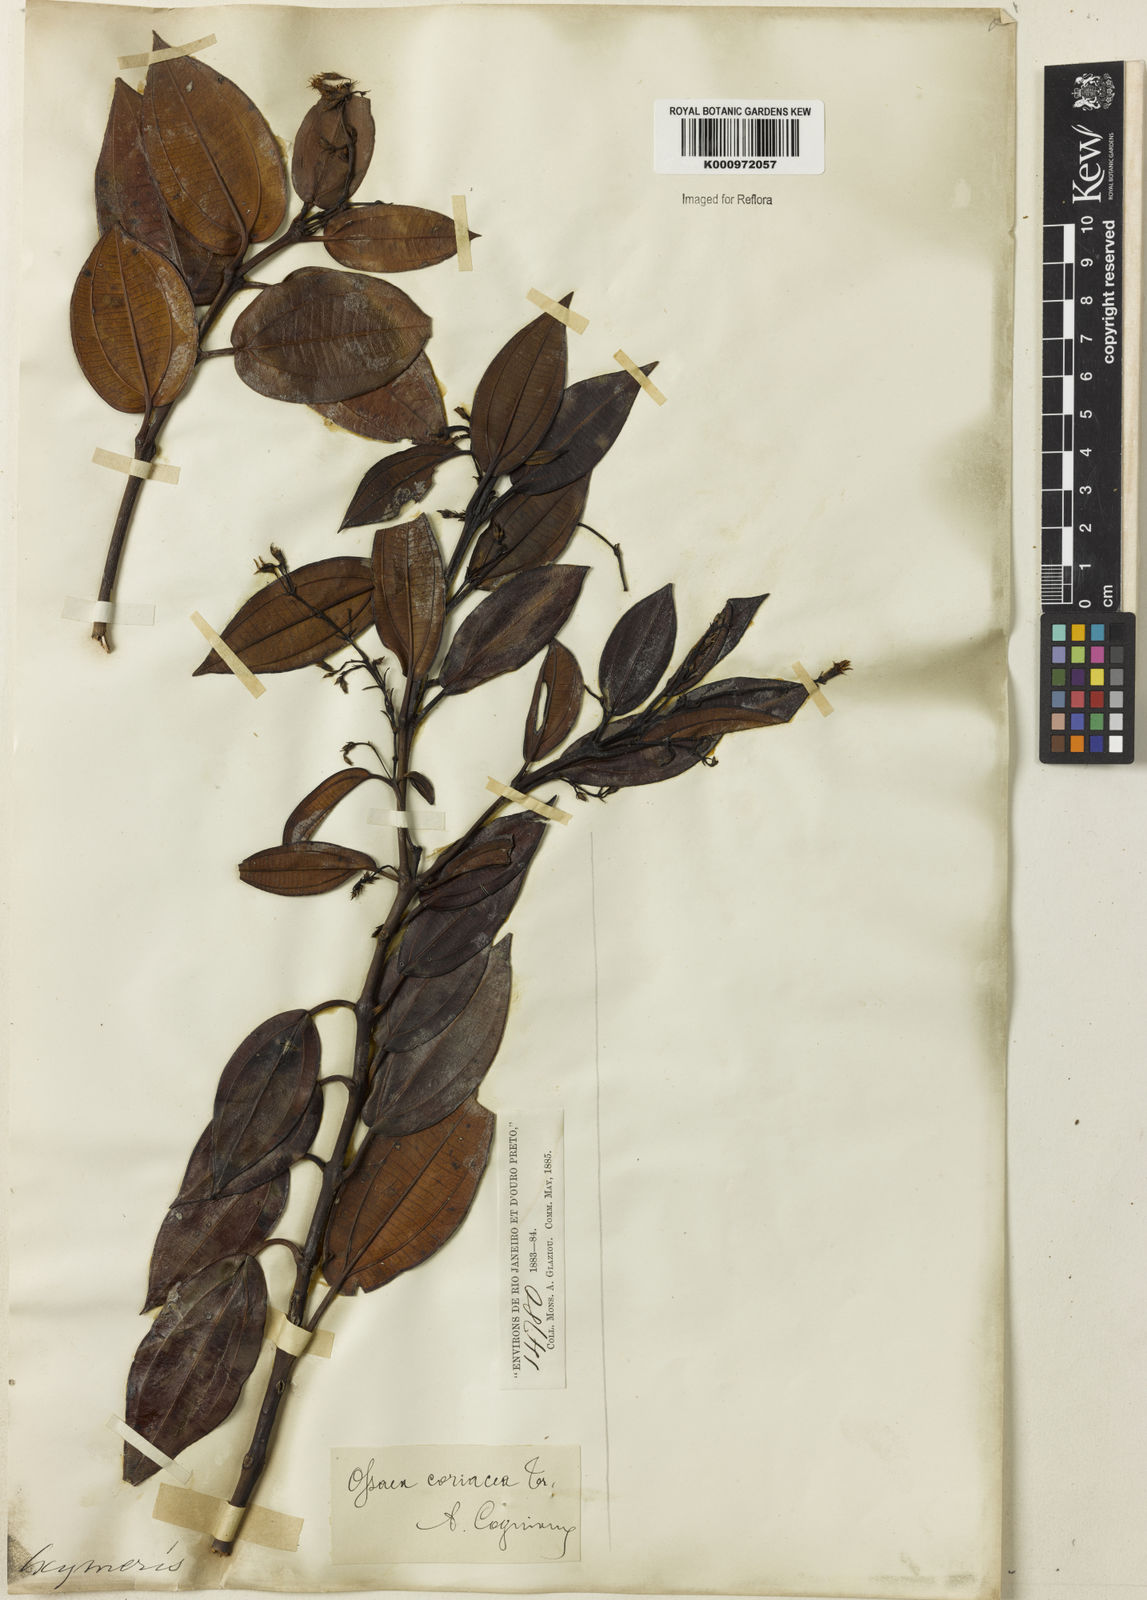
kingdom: Plantae
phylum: Tracheophyta
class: Magnoliopsida
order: Myrtales
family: Melastomataceae
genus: Miconia
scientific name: Miconia leacongestiflora
